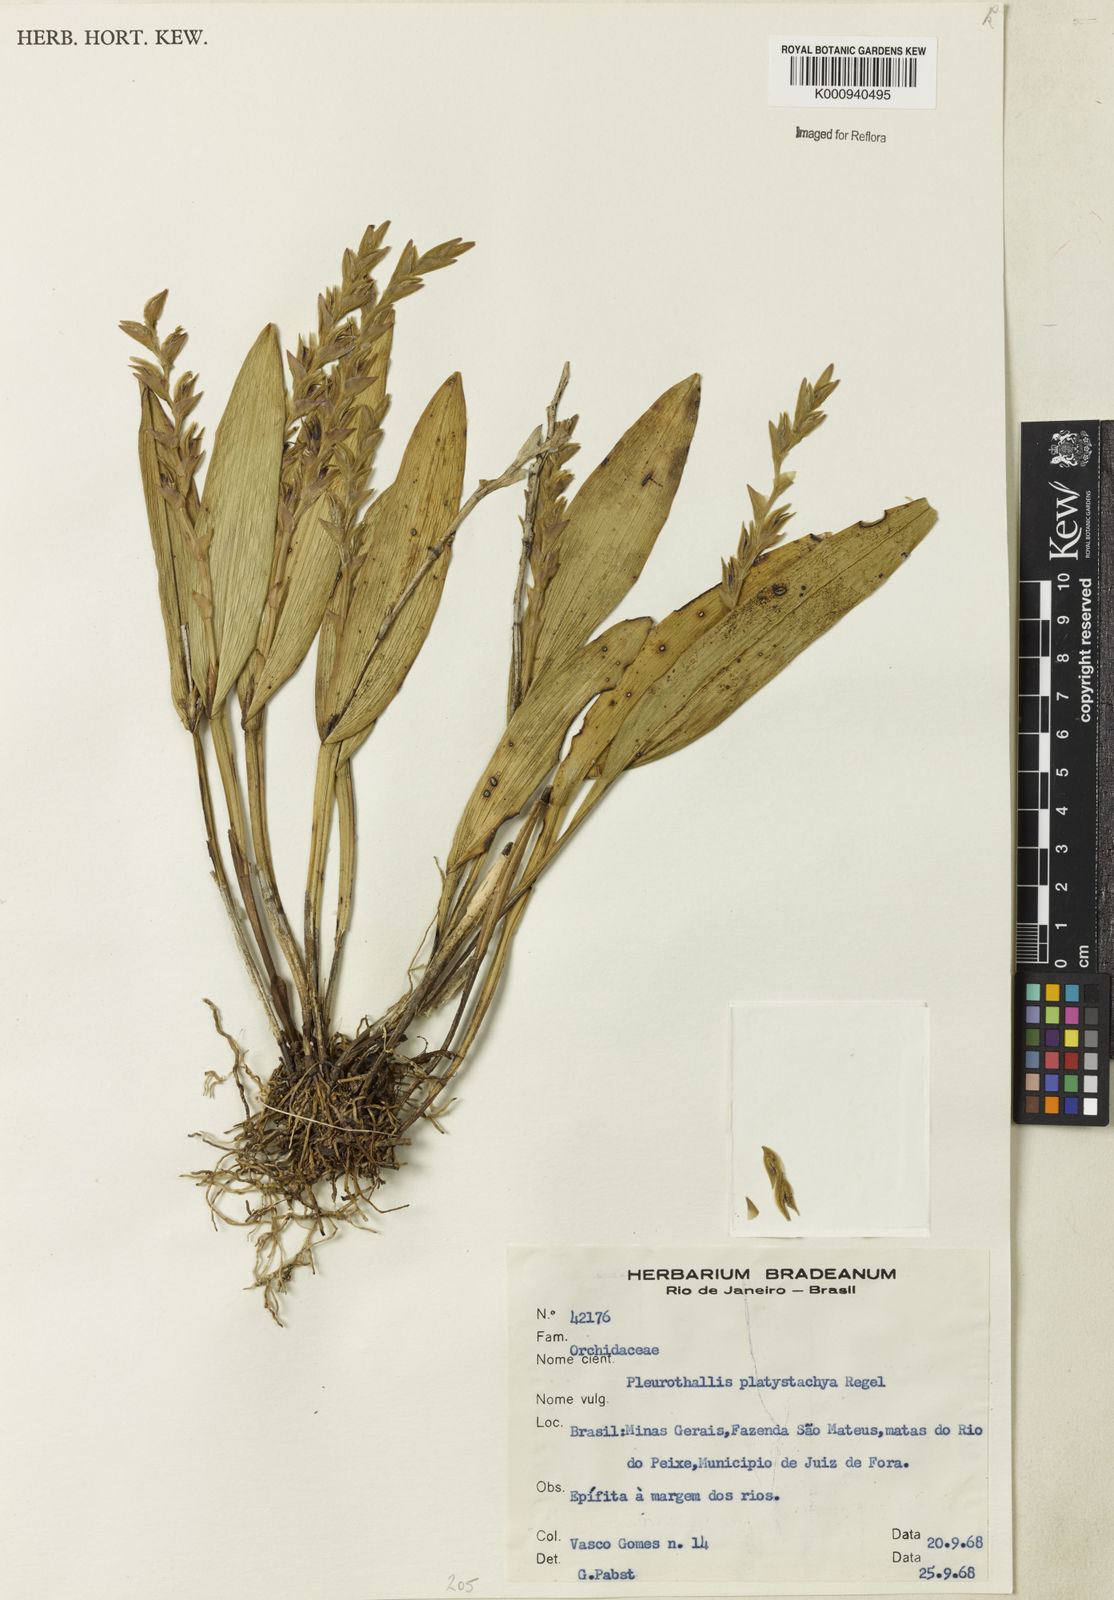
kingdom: Plantae
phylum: Tracheophyta
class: Liliopsida
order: Asparagales
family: Orchidaceae
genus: Acianthera
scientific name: Acianthera
